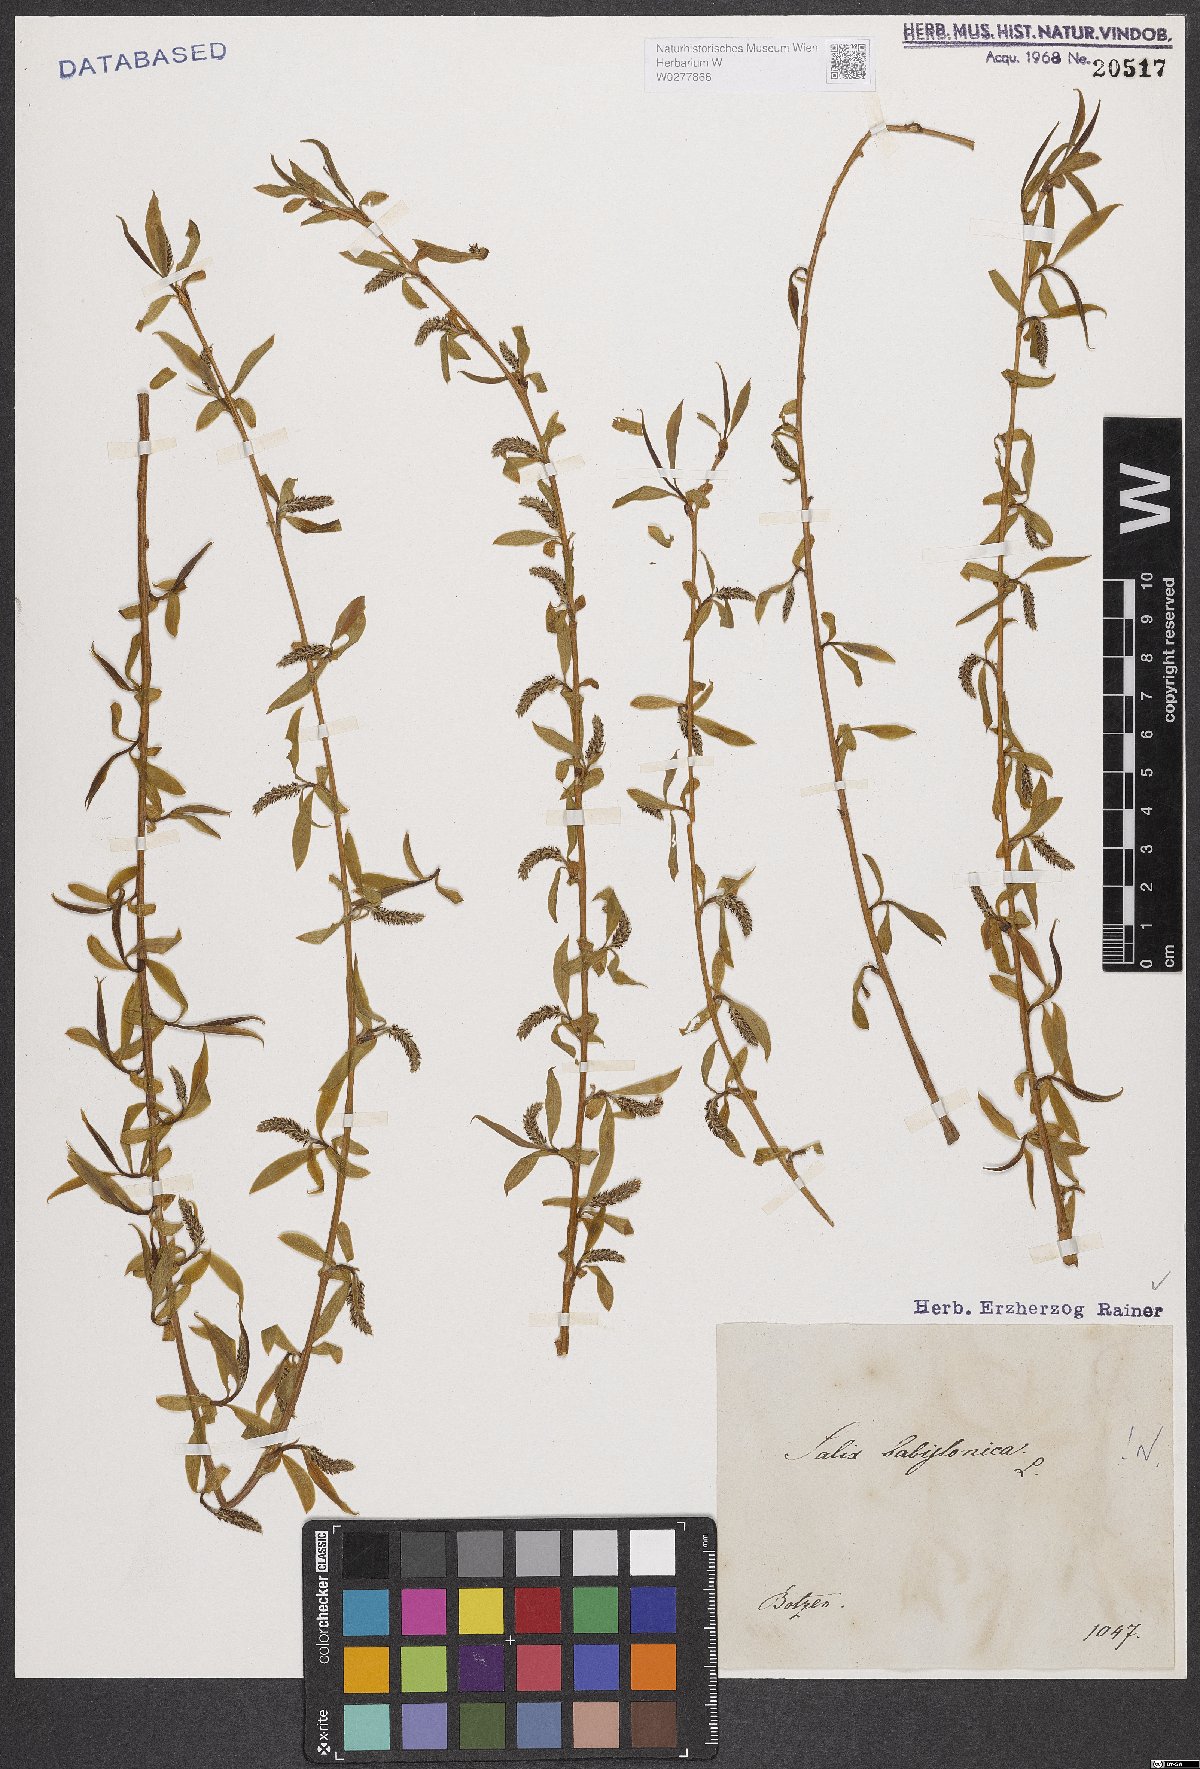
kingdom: Plantae
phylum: Tracheophyta
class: Magnoliopsida
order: Malpighiales
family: Salicaceae
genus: Salix
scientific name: Salix babylonica
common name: Weeping willow
